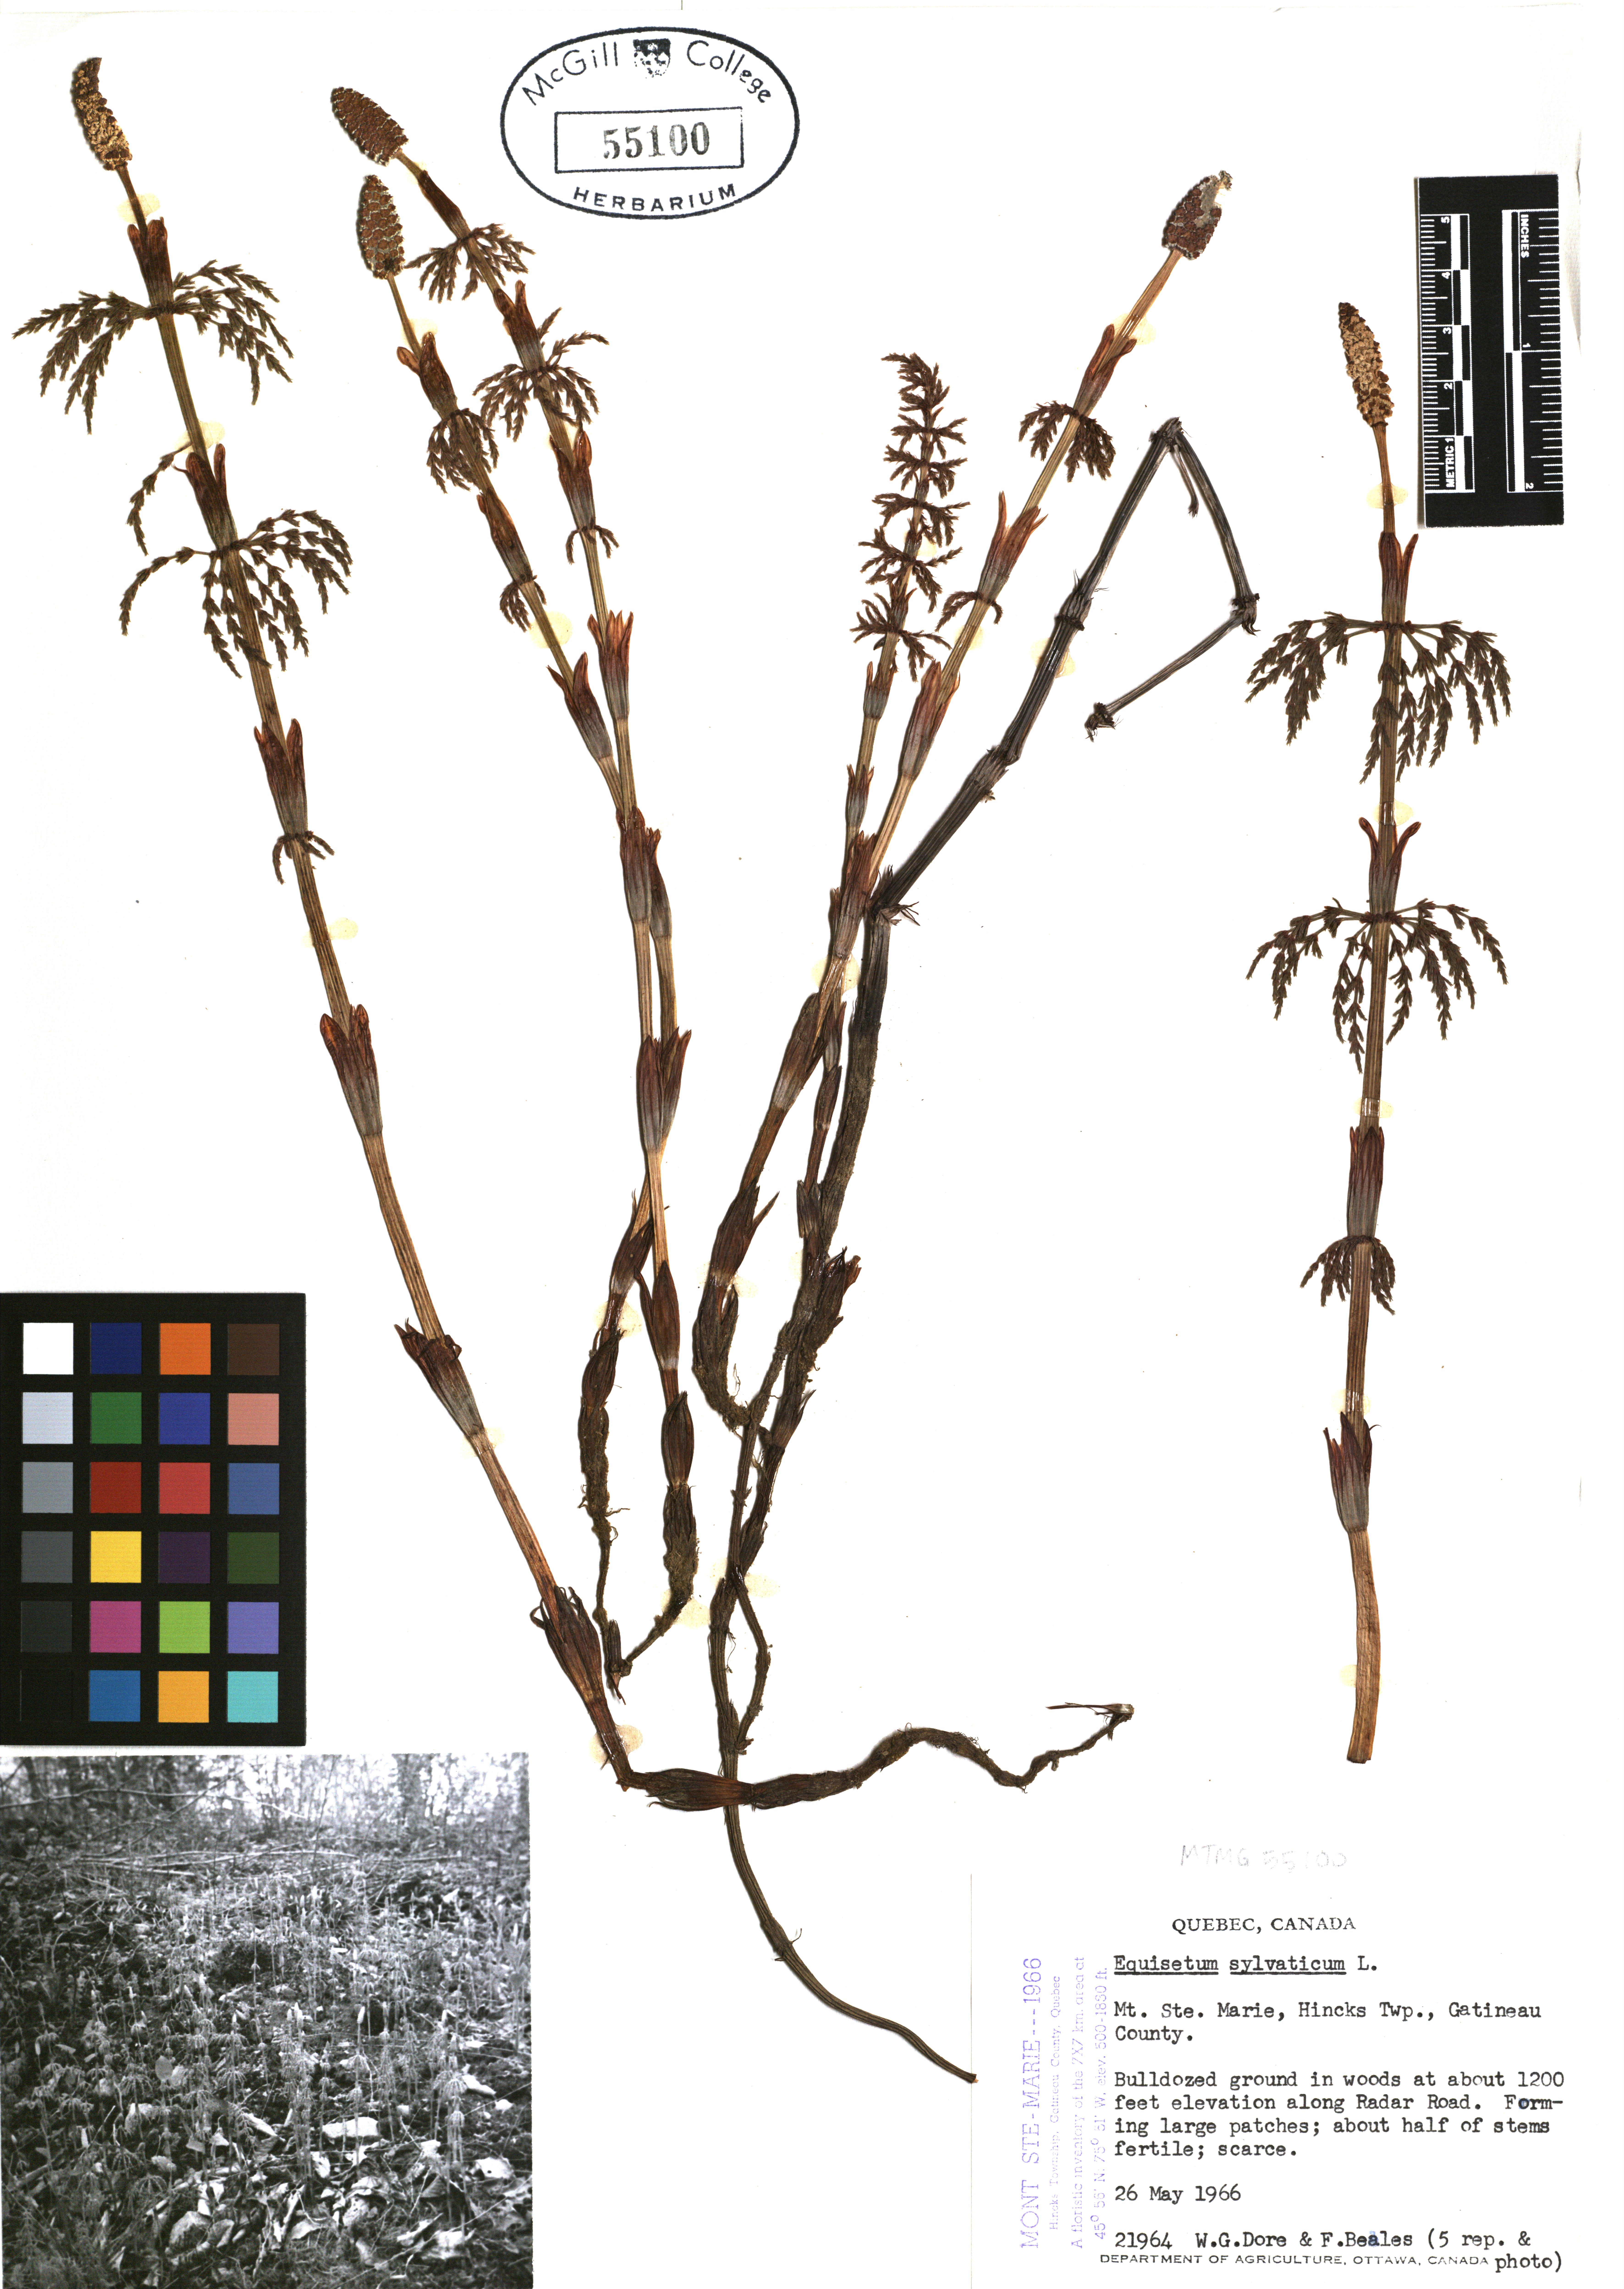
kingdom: Plantae
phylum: Tracheophyta
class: Polypodiopsida
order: Equisetales
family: Equisetaceae
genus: Equisetum
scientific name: Equisetum sylvaticum
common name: Wood horsetail
